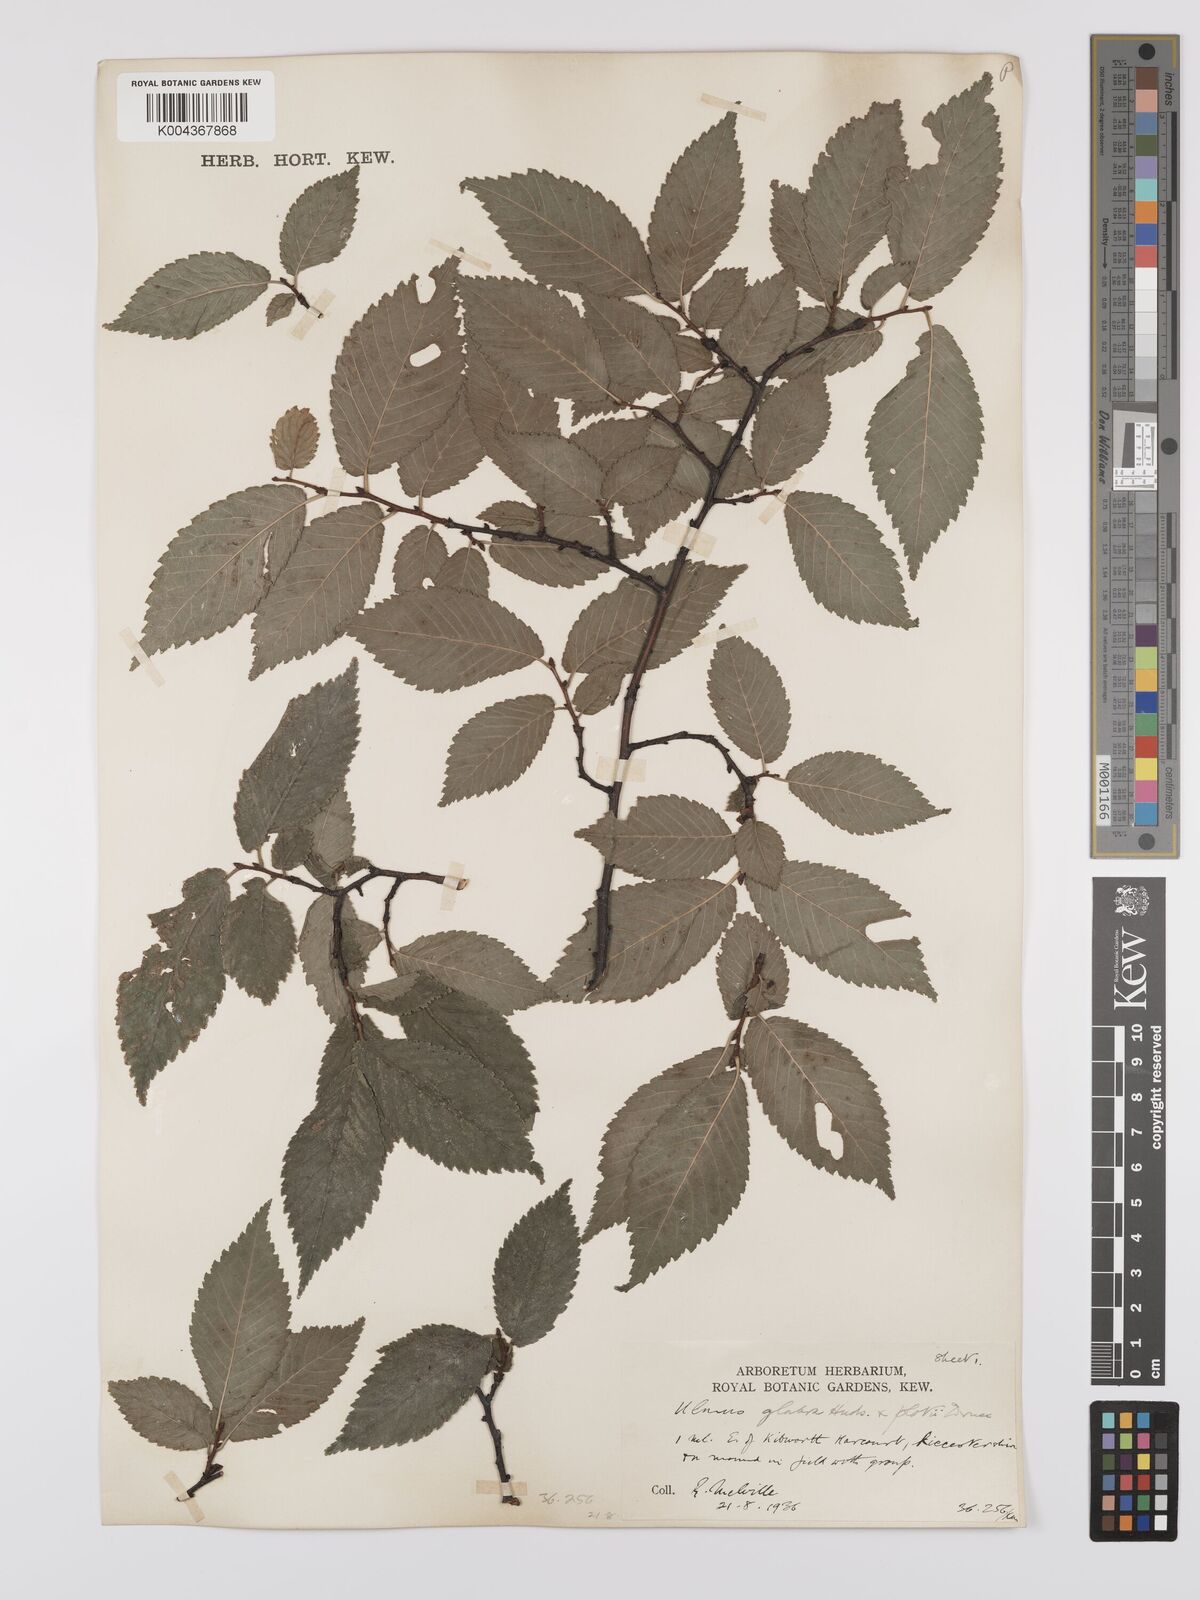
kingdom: Plantae
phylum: Tracheophyta
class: Magnoliopsida
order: Rosales
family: Ulmaceae
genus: Ulmus
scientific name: Ulmus
